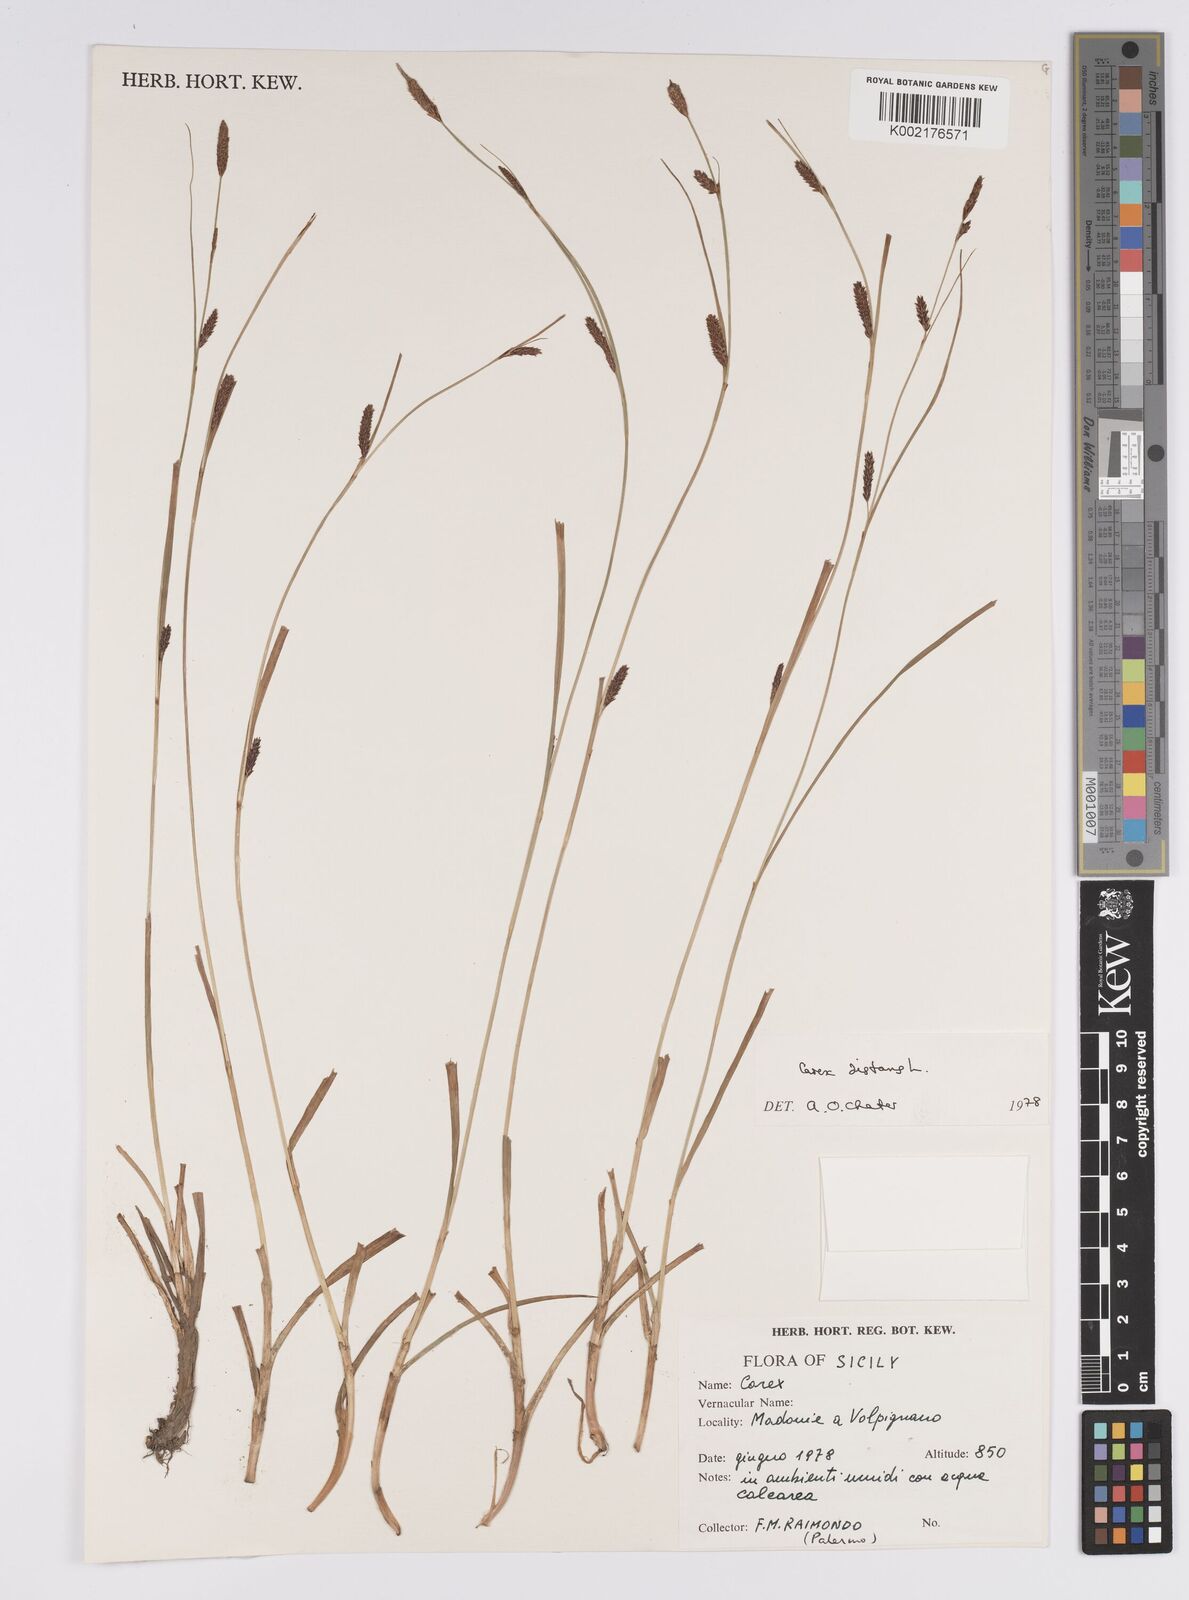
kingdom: Plantae
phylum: Tracheophyta
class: Liliopsida
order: Poales
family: Cyperaceae
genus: Carex
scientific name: Carex distans
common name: Distant sedge
